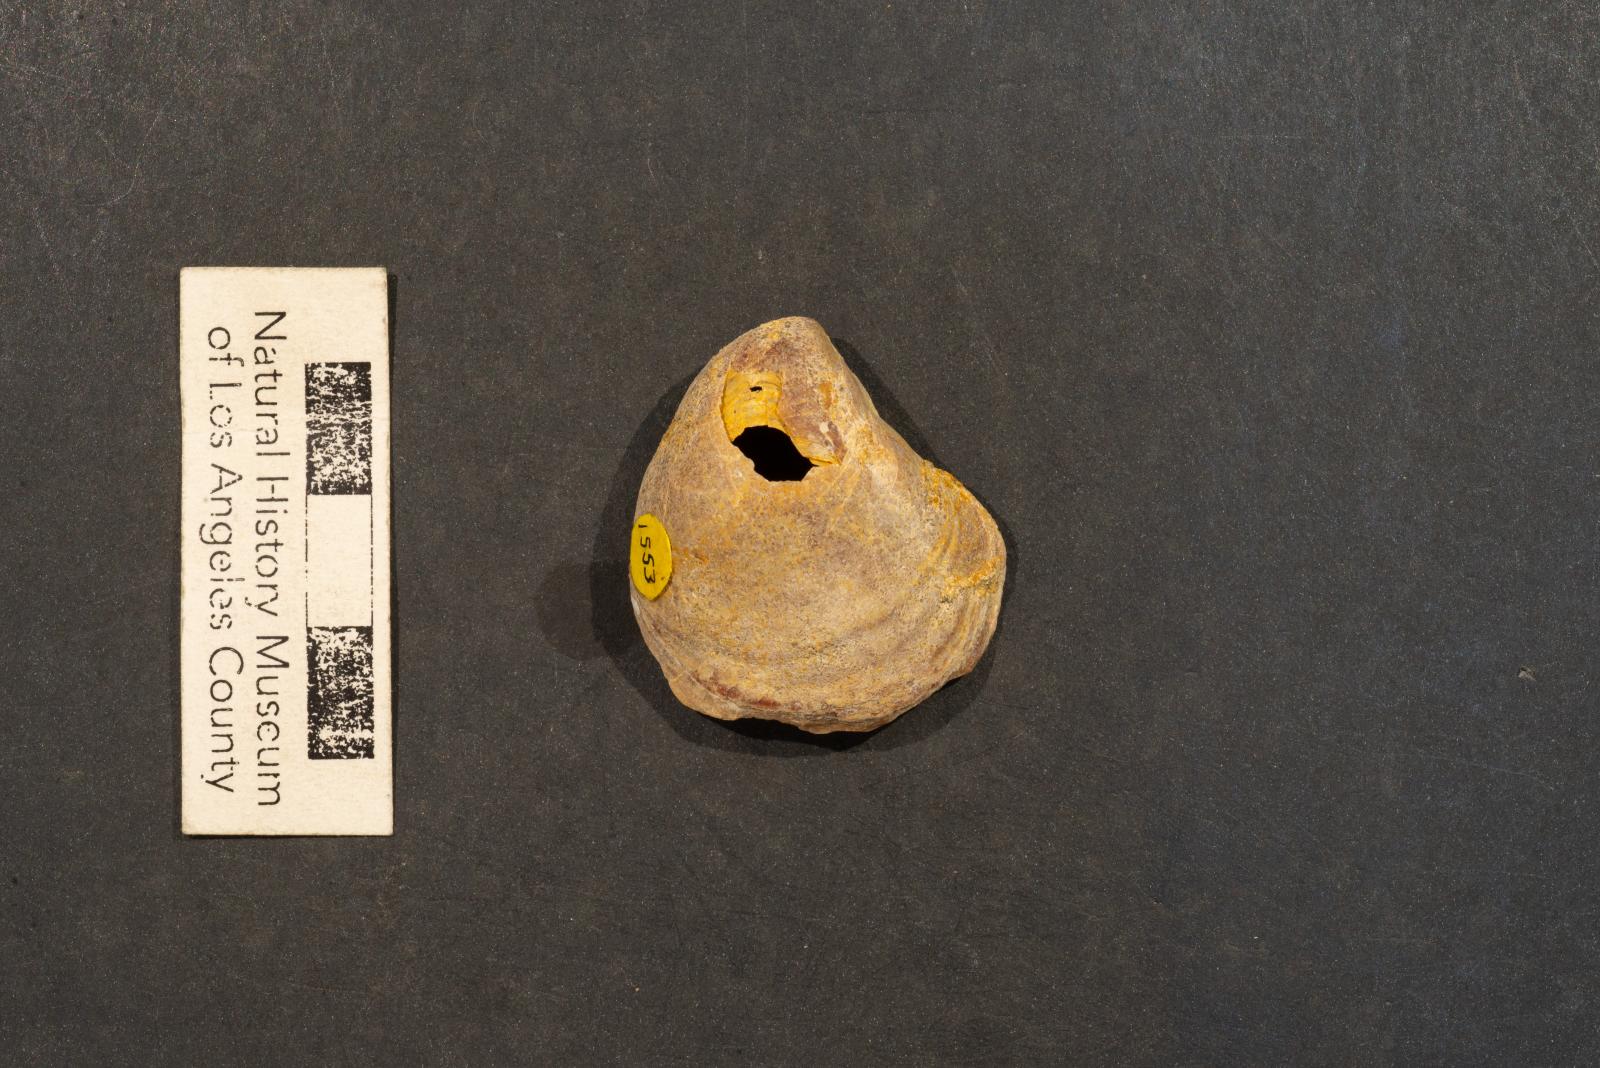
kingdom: Animalia
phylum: Mollusca
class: Bivalvia
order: Pectinida
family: Anomiidae
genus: Anomia
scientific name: Anomia jalama
